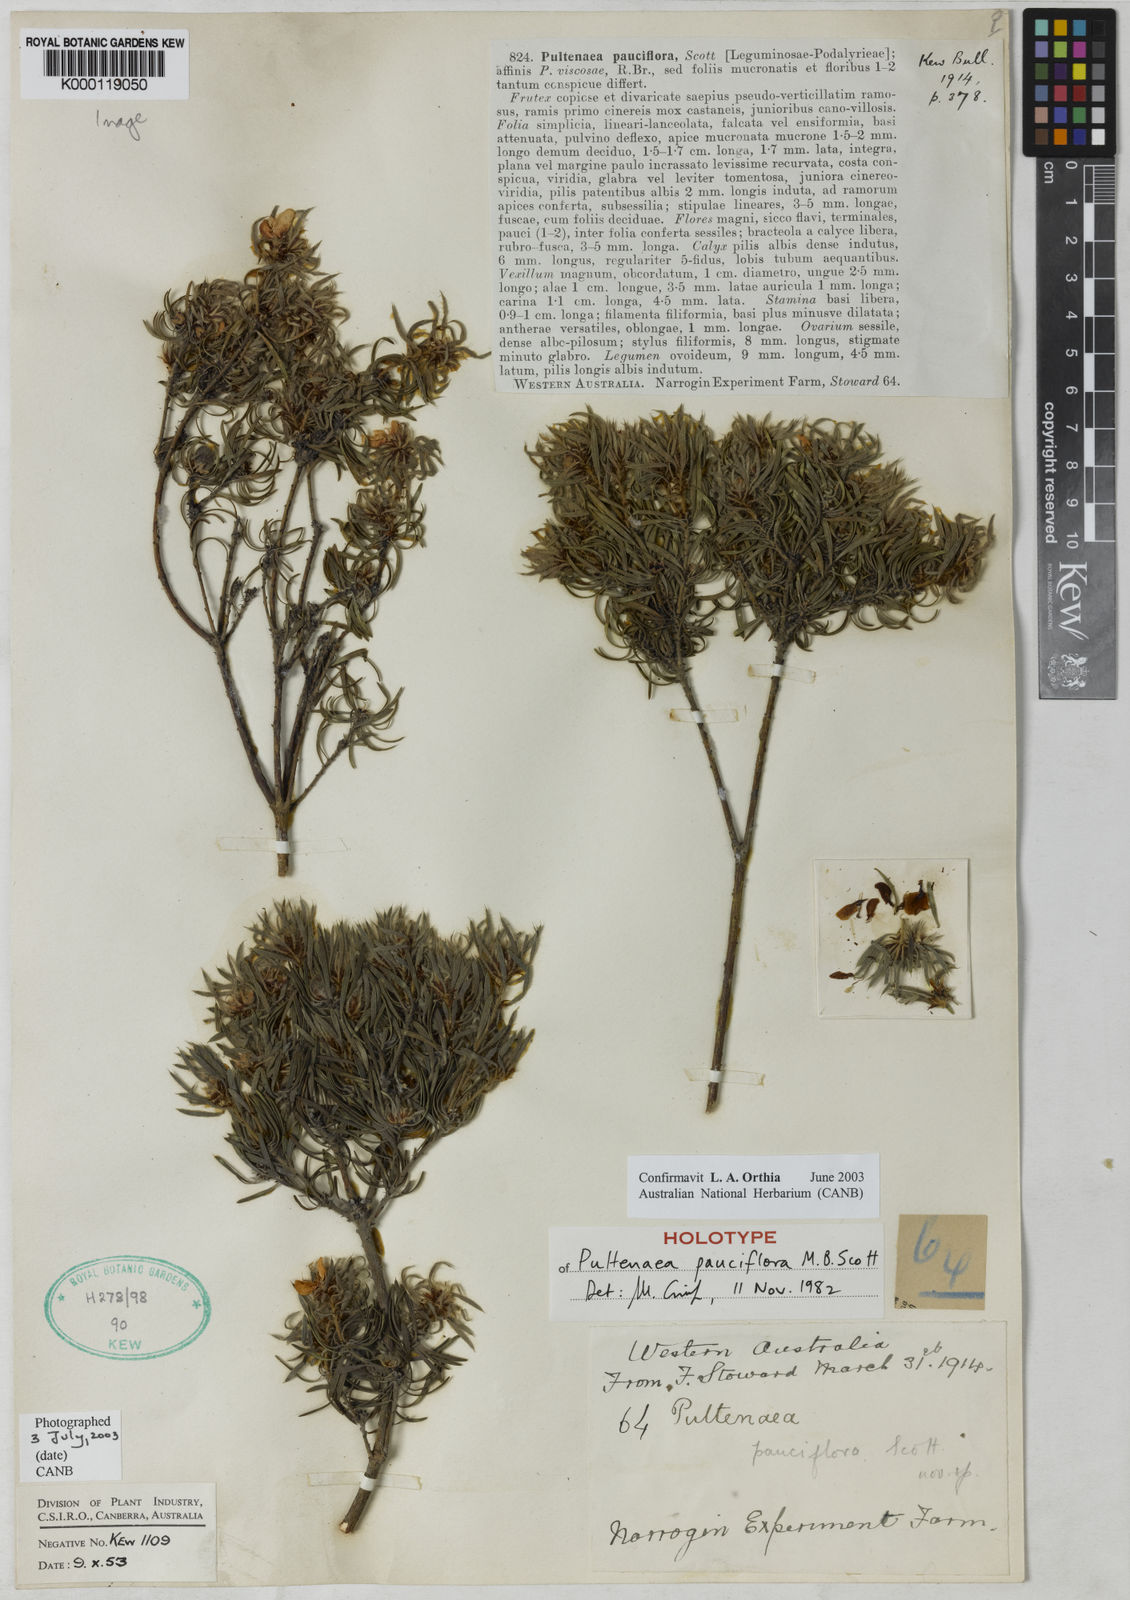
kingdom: Plantae
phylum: Tracheophyta
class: Magnoliopsida
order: Fabales
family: Fabaceae
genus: Pultenaea
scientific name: Pultenaea pauciflora
